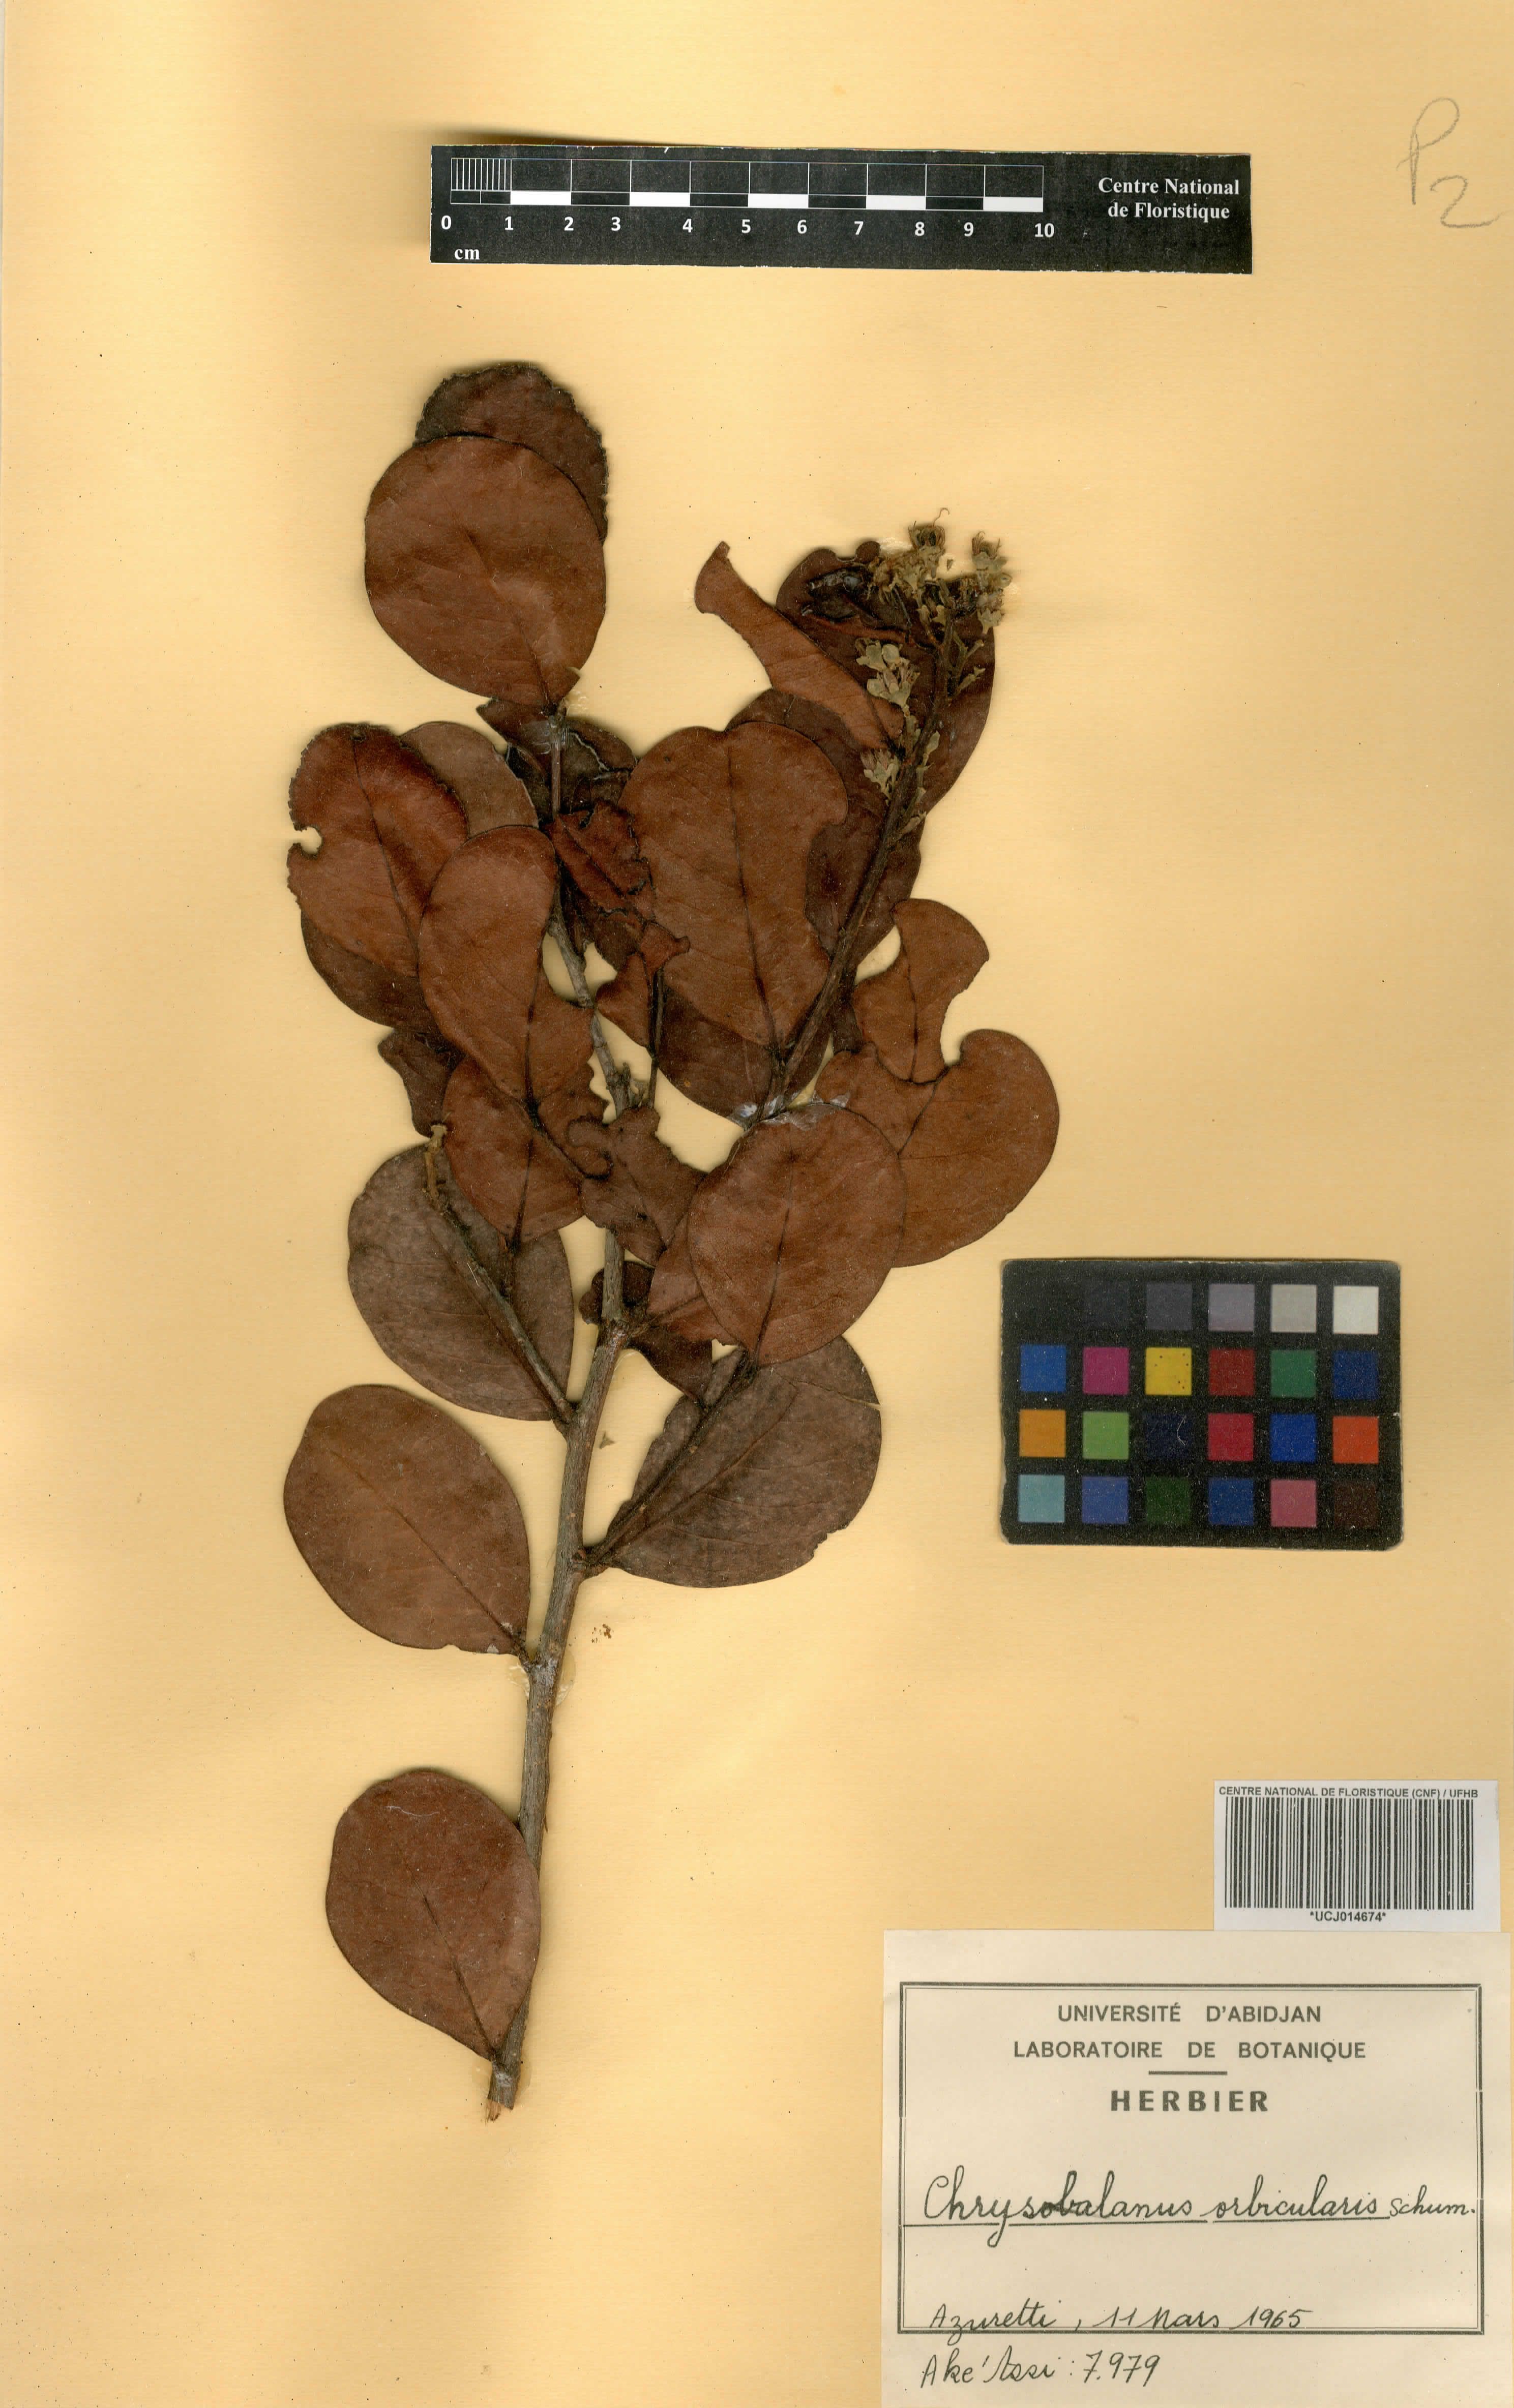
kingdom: Plantae
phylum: Tracheophyta
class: Magnoliopsida
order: Malpighiales
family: Chrysobalanaceae
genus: Chrysobalanus
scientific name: Chrysobalanus icaco
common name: Coco plum
